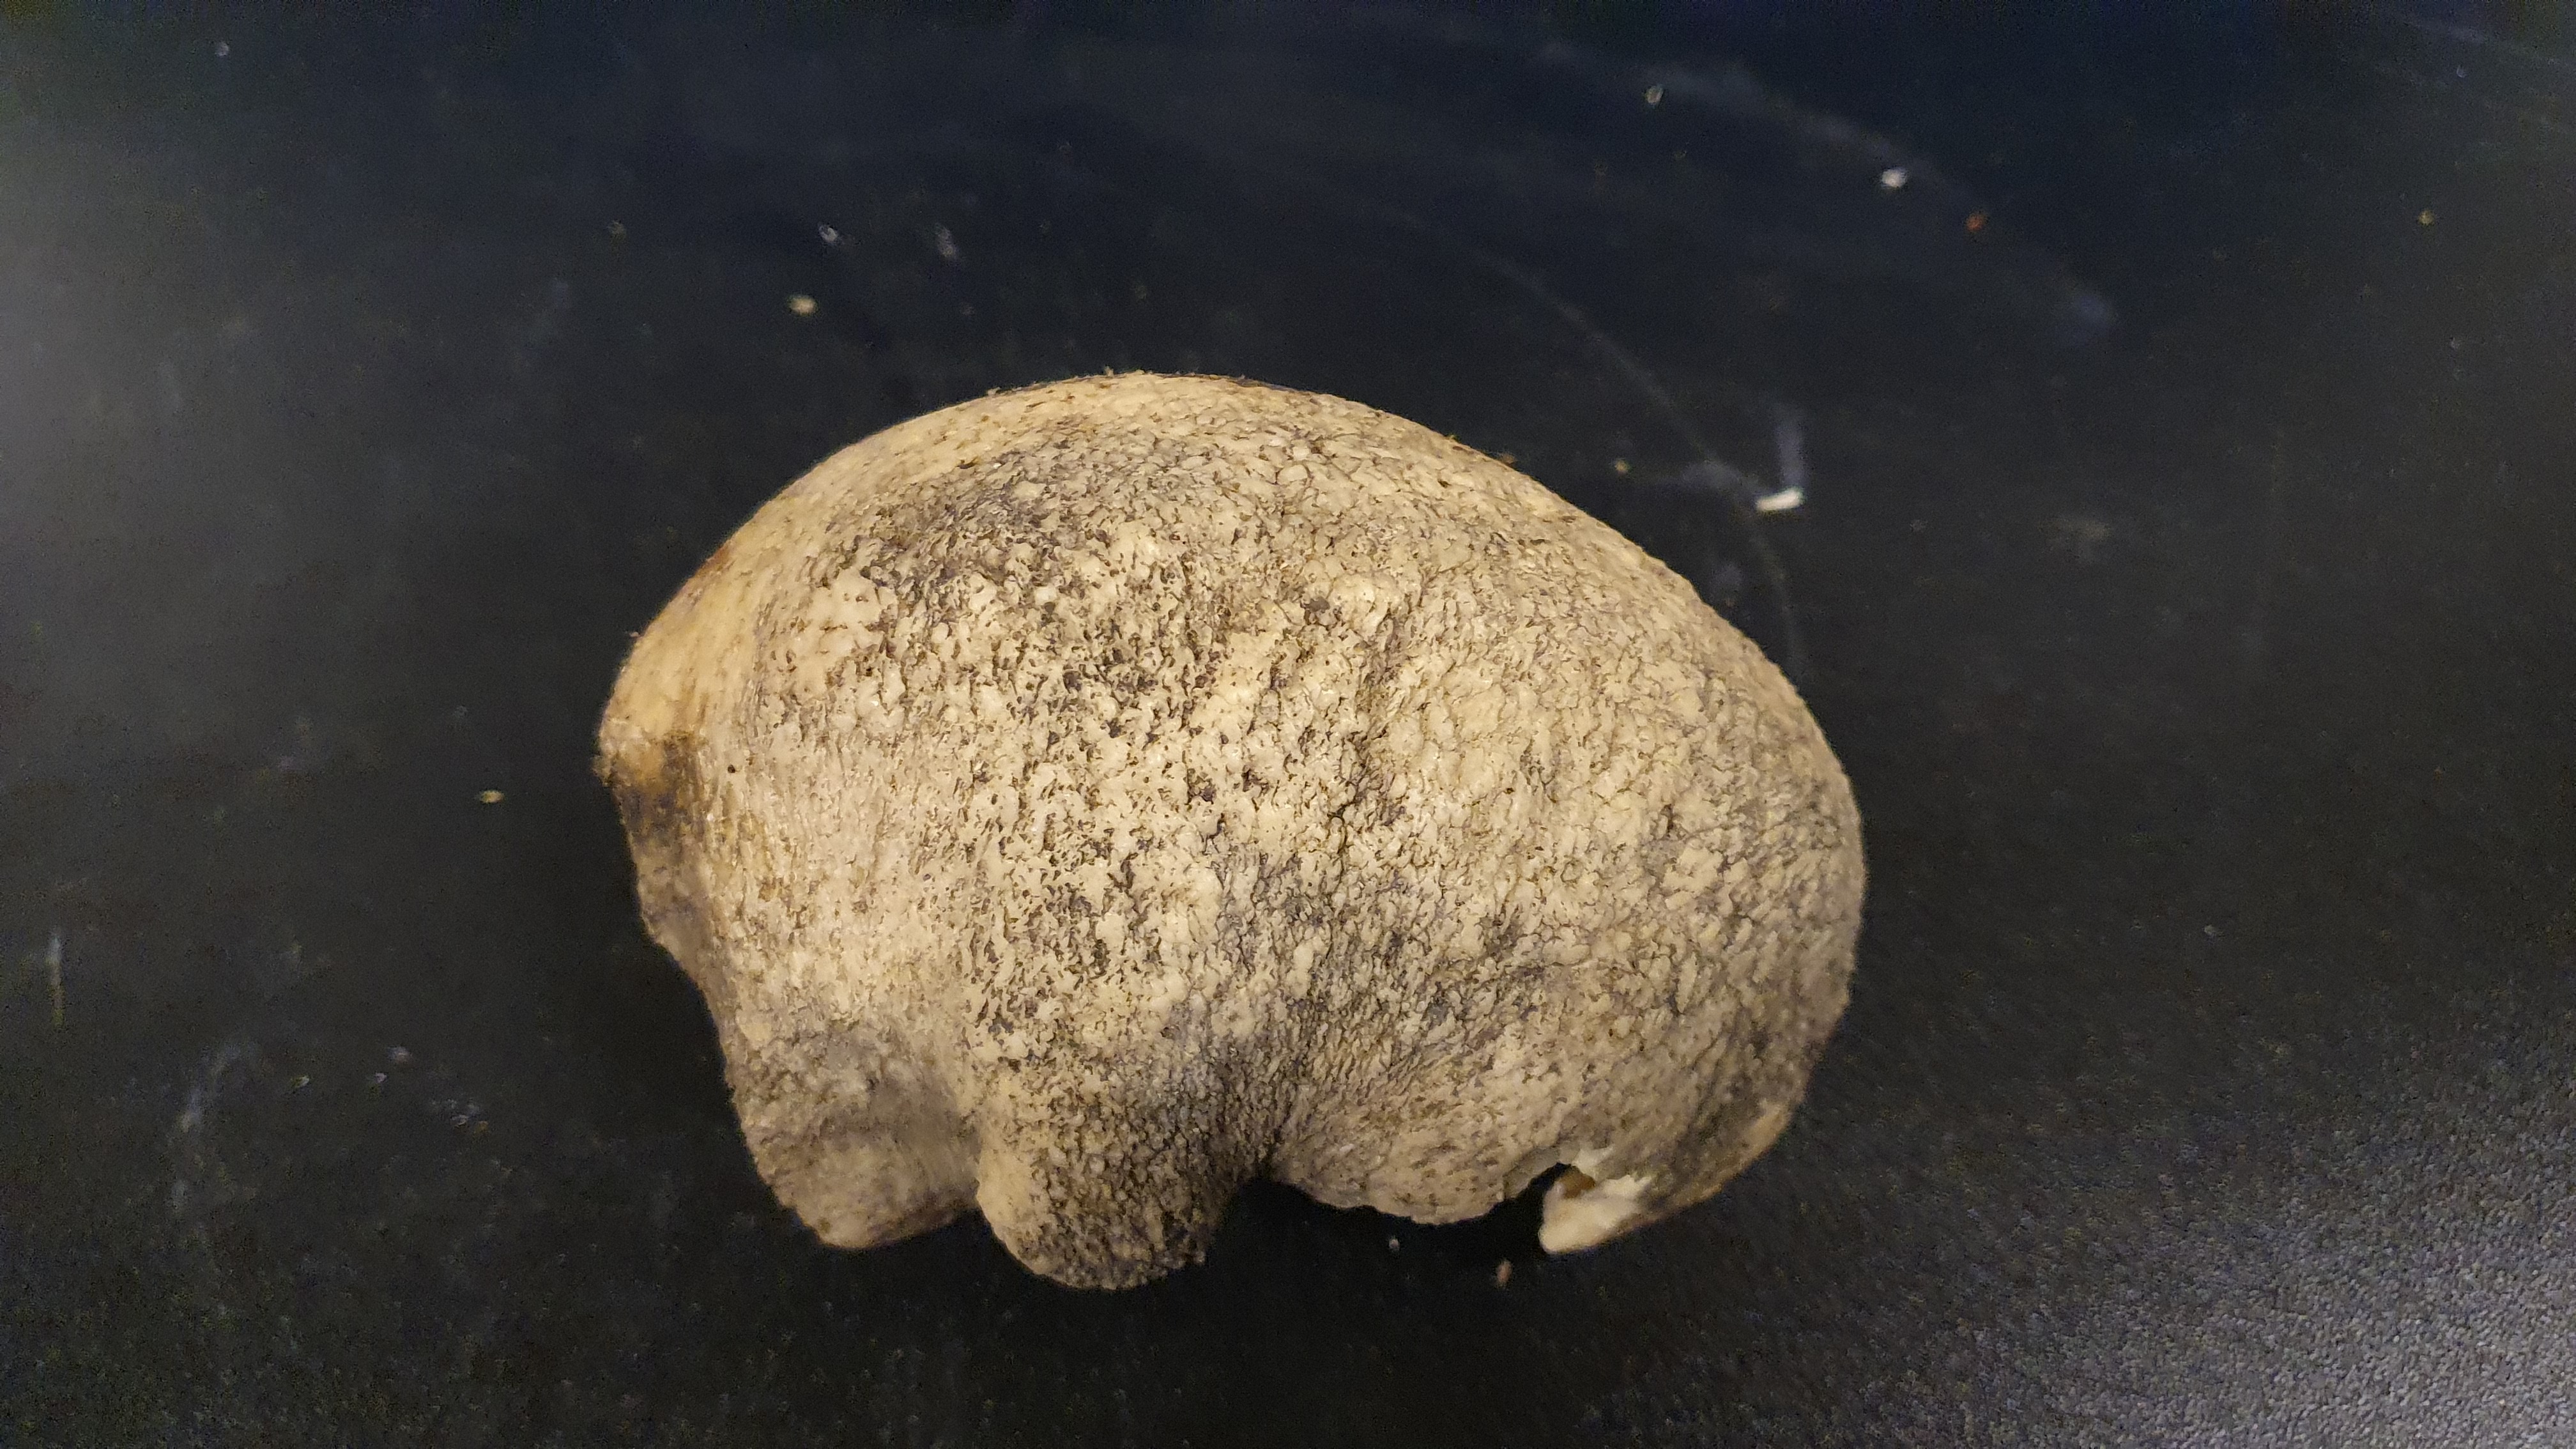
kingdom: Animalia
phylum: Chordata
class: Mammalia
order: Cetacea
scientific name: Cetacea
